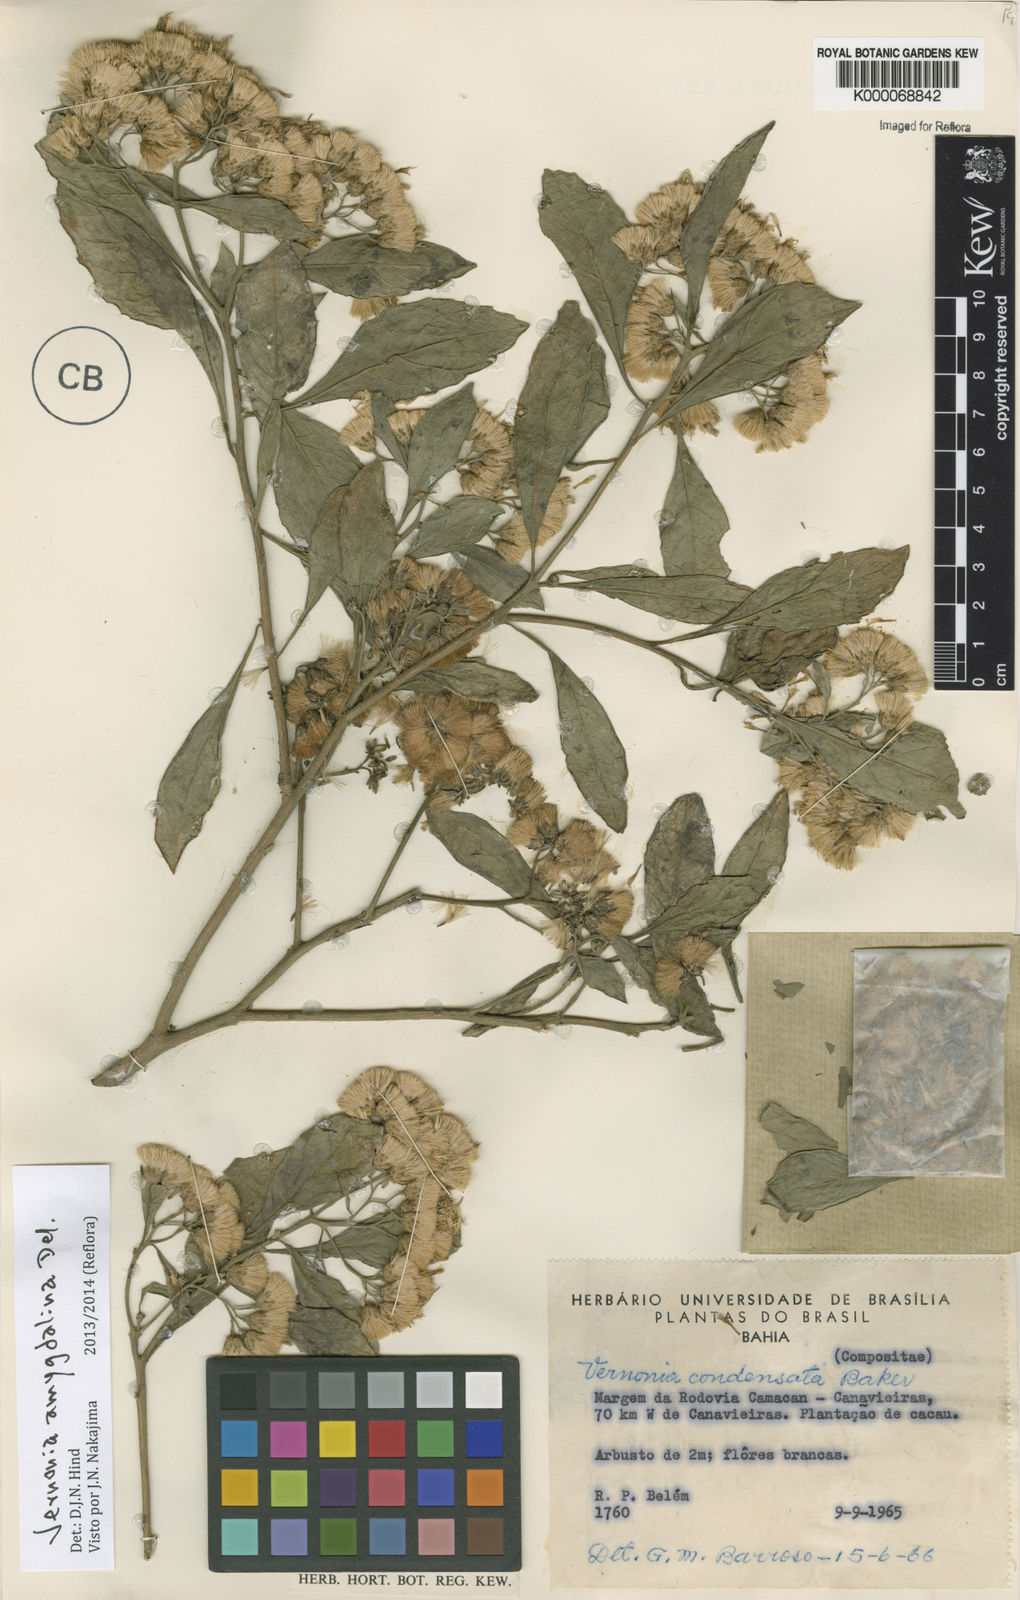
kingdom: Plantae
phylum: Tracheophyta
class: Magnoliopsida
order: Asterales
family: Asteraceae
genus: Gymnanthemum
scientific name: Gymnanthemum amygdalinum
